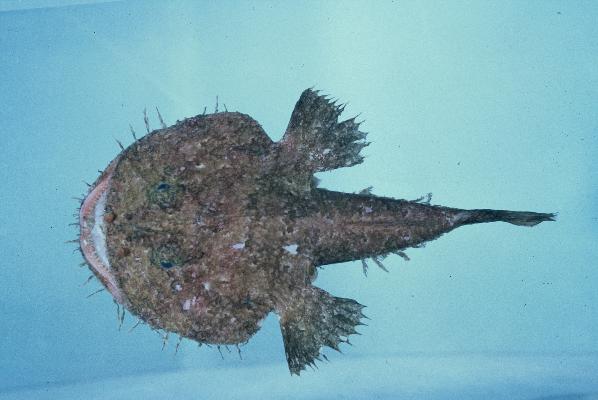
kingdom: Animalia
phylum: Chordata
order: Lophiiformes
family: Lophiidae
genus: Lophiomus
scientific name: Lophiomus setigerus
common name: Blackmouth angler
